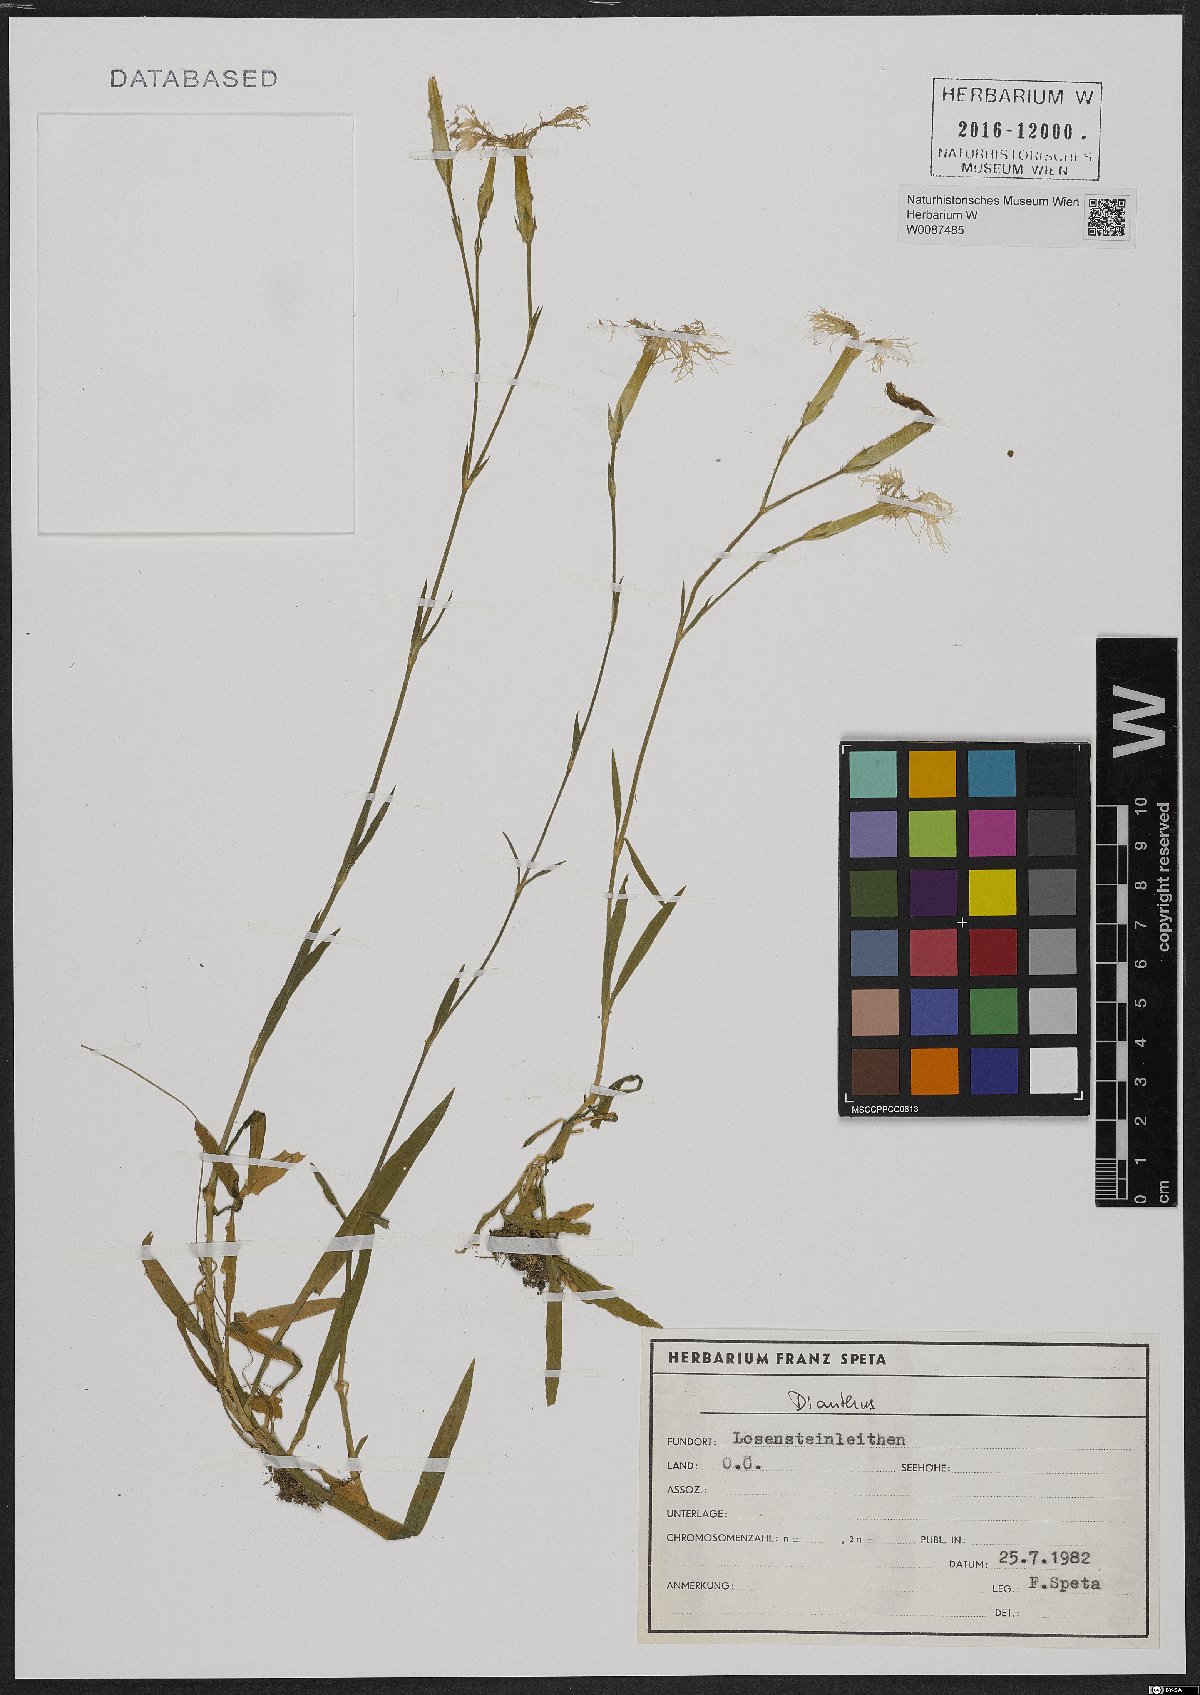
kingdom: Plantae
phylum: Tracheophyta
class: Magnoliopsida
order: Caryophyllales
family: Caryophyllaceae
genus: Dianthus
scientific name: Dianthus superbus
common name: Fringed pink
